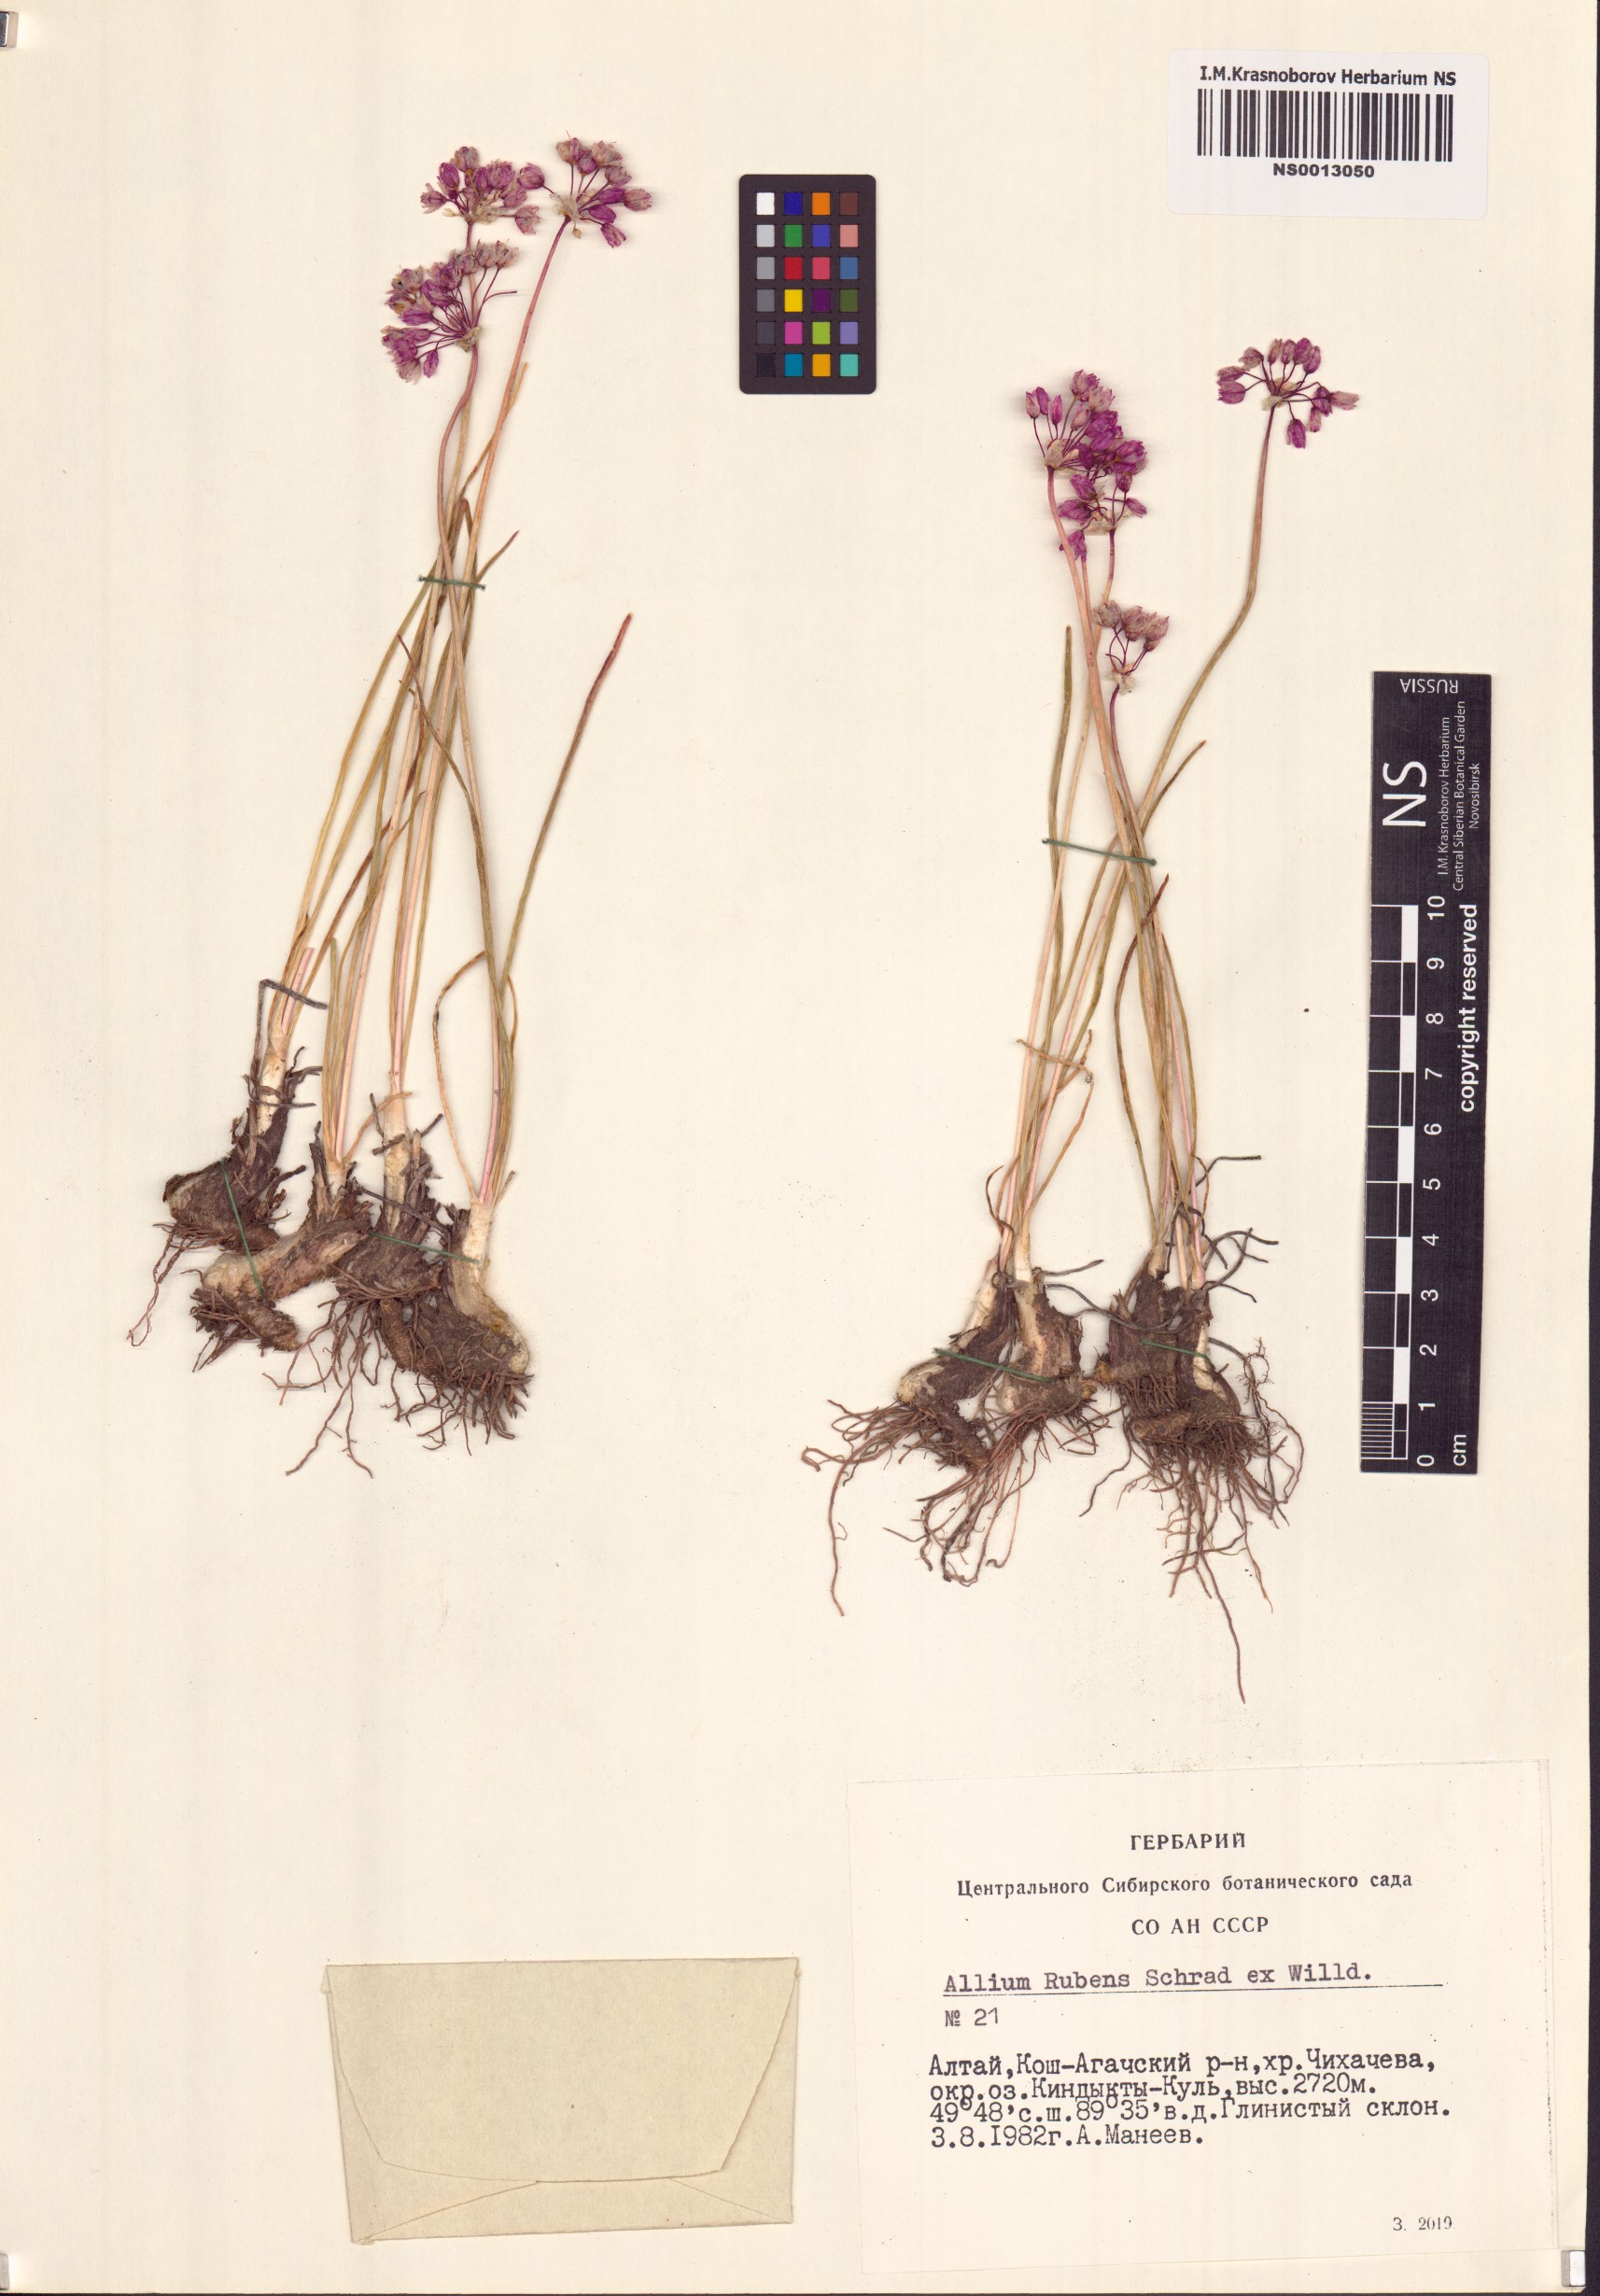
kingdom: Plantae
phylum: Tracheophyta
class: Liliopsida
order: Asparagales
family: Amaryllidaceae
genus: Allium
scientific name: Allium rubens
